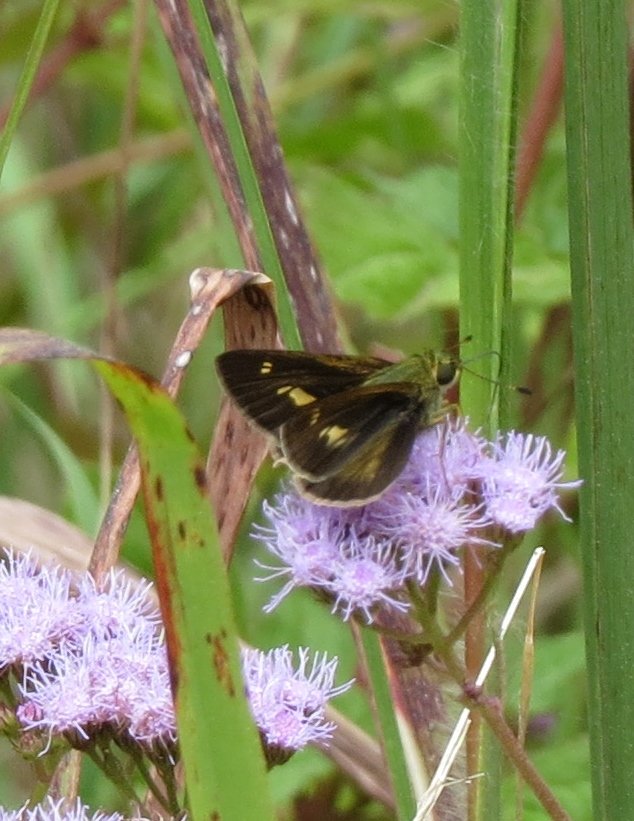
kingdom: Animalia
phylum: Arthropoda
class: Insecta
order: Lepidoptera
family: Hesperiidae
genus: Vernia
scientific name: Vernia verna
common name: Little Glassywing
